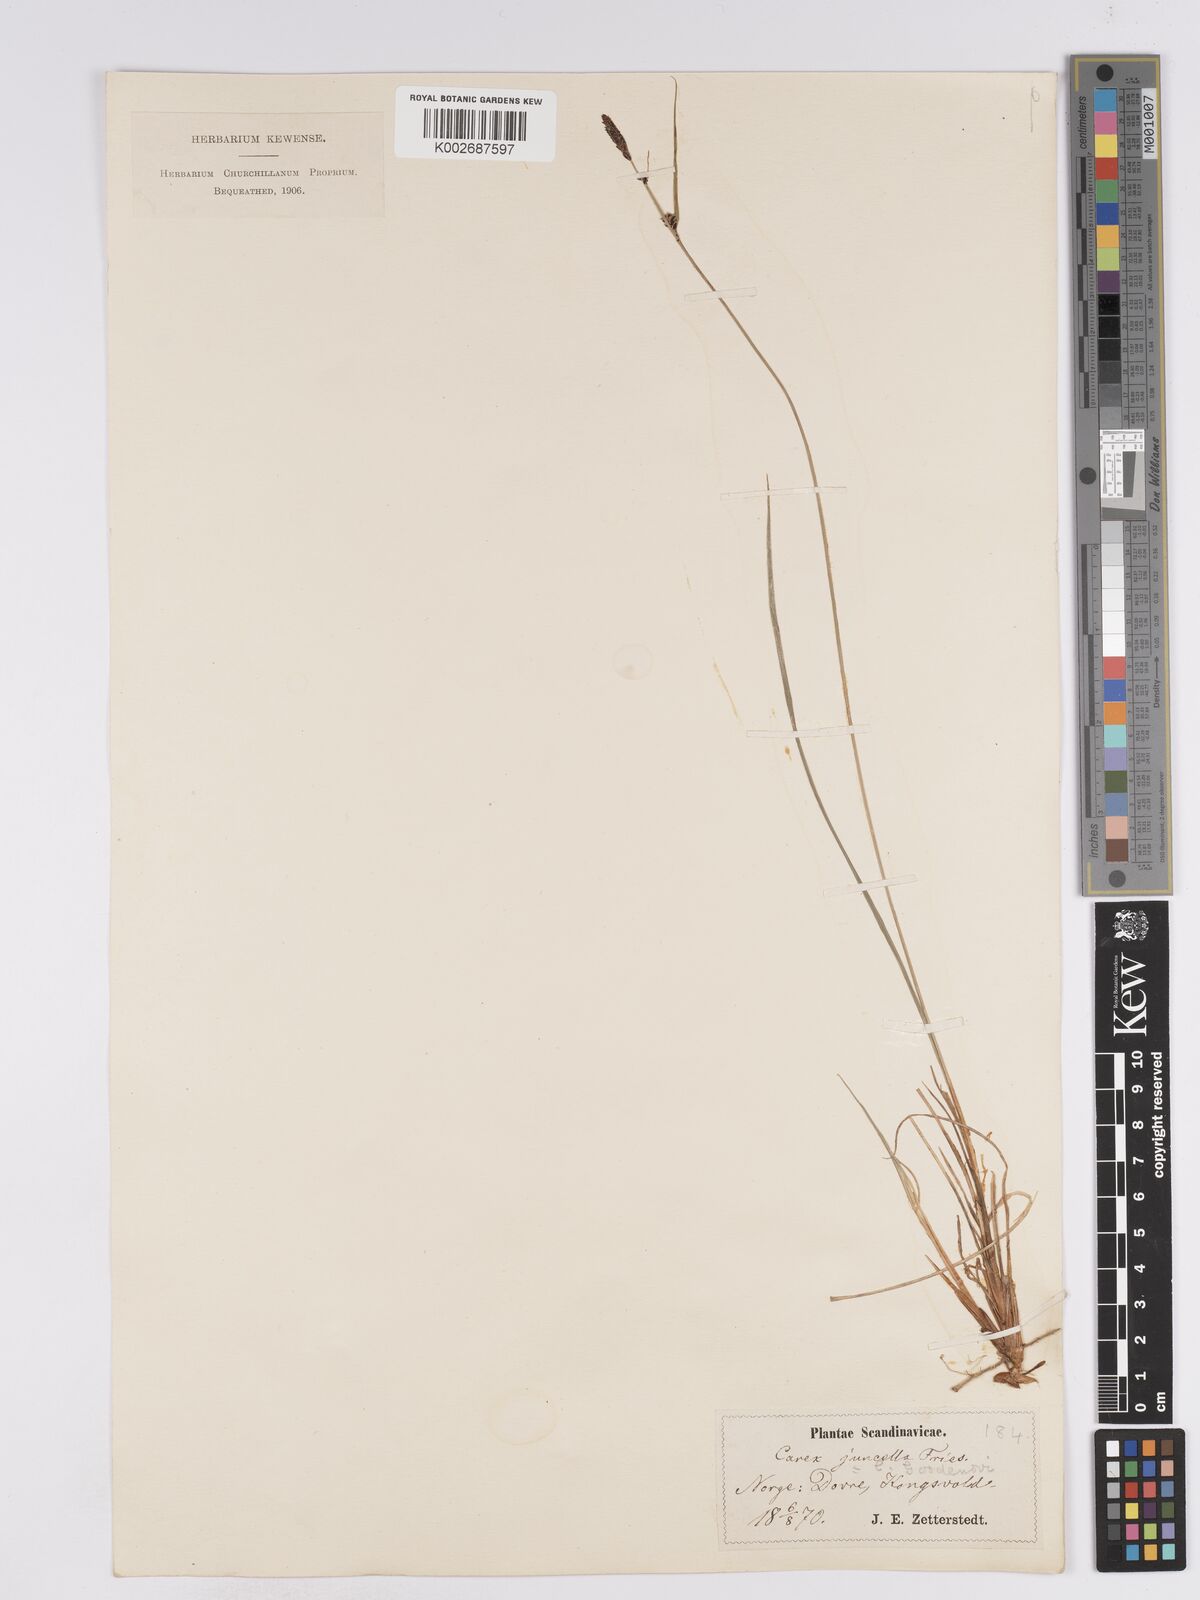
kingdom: Plantae
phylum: Tracheophyta
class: Liliopsida
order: Poales
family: Cyperaceae
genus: Carex
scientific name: Carex
